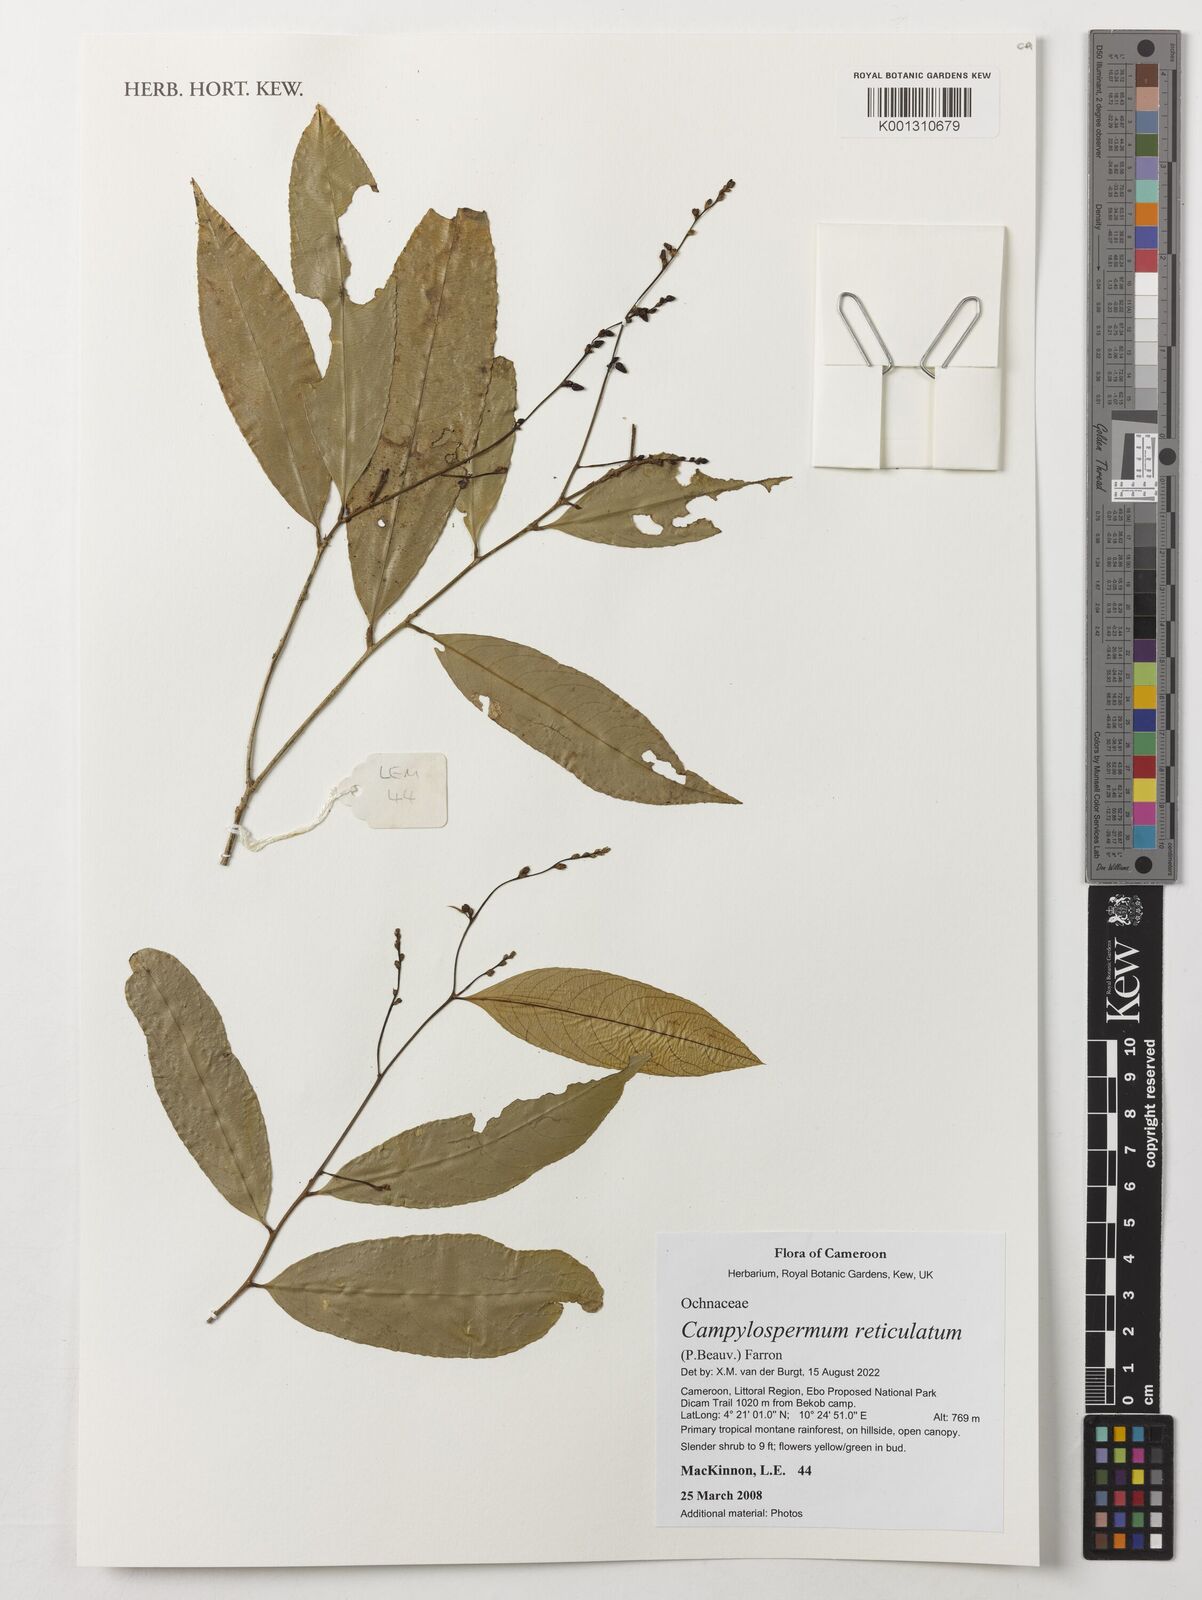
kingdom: Plantae
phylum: Tracheophyta
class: Magnoliopsida
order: Malpighiales
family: Ochnaceae
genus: Campylospermum
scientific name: Campylospermum reticulatum
